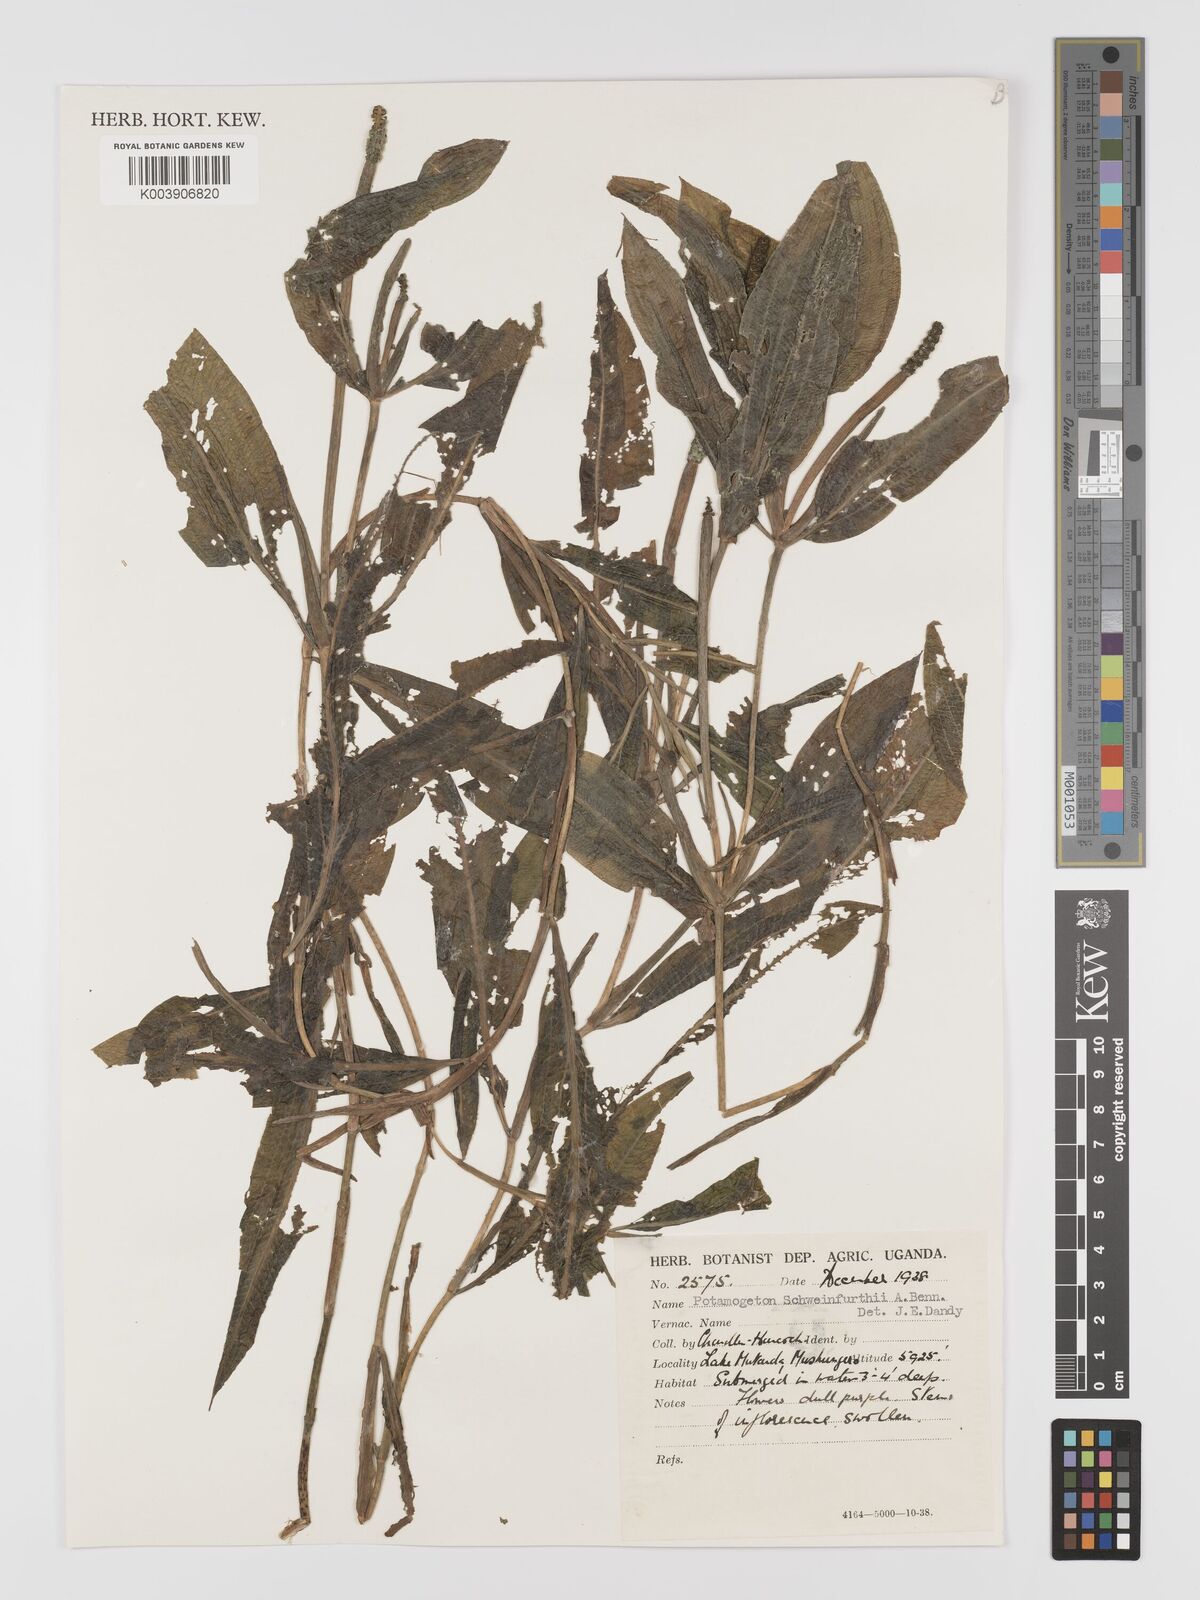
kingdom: Plantae
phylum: Tracheophyta
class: Liliopsida
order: Alismatales
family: Potamogetonaceae
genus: Potamogeton
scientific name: Potamogeton schweinfurthii
